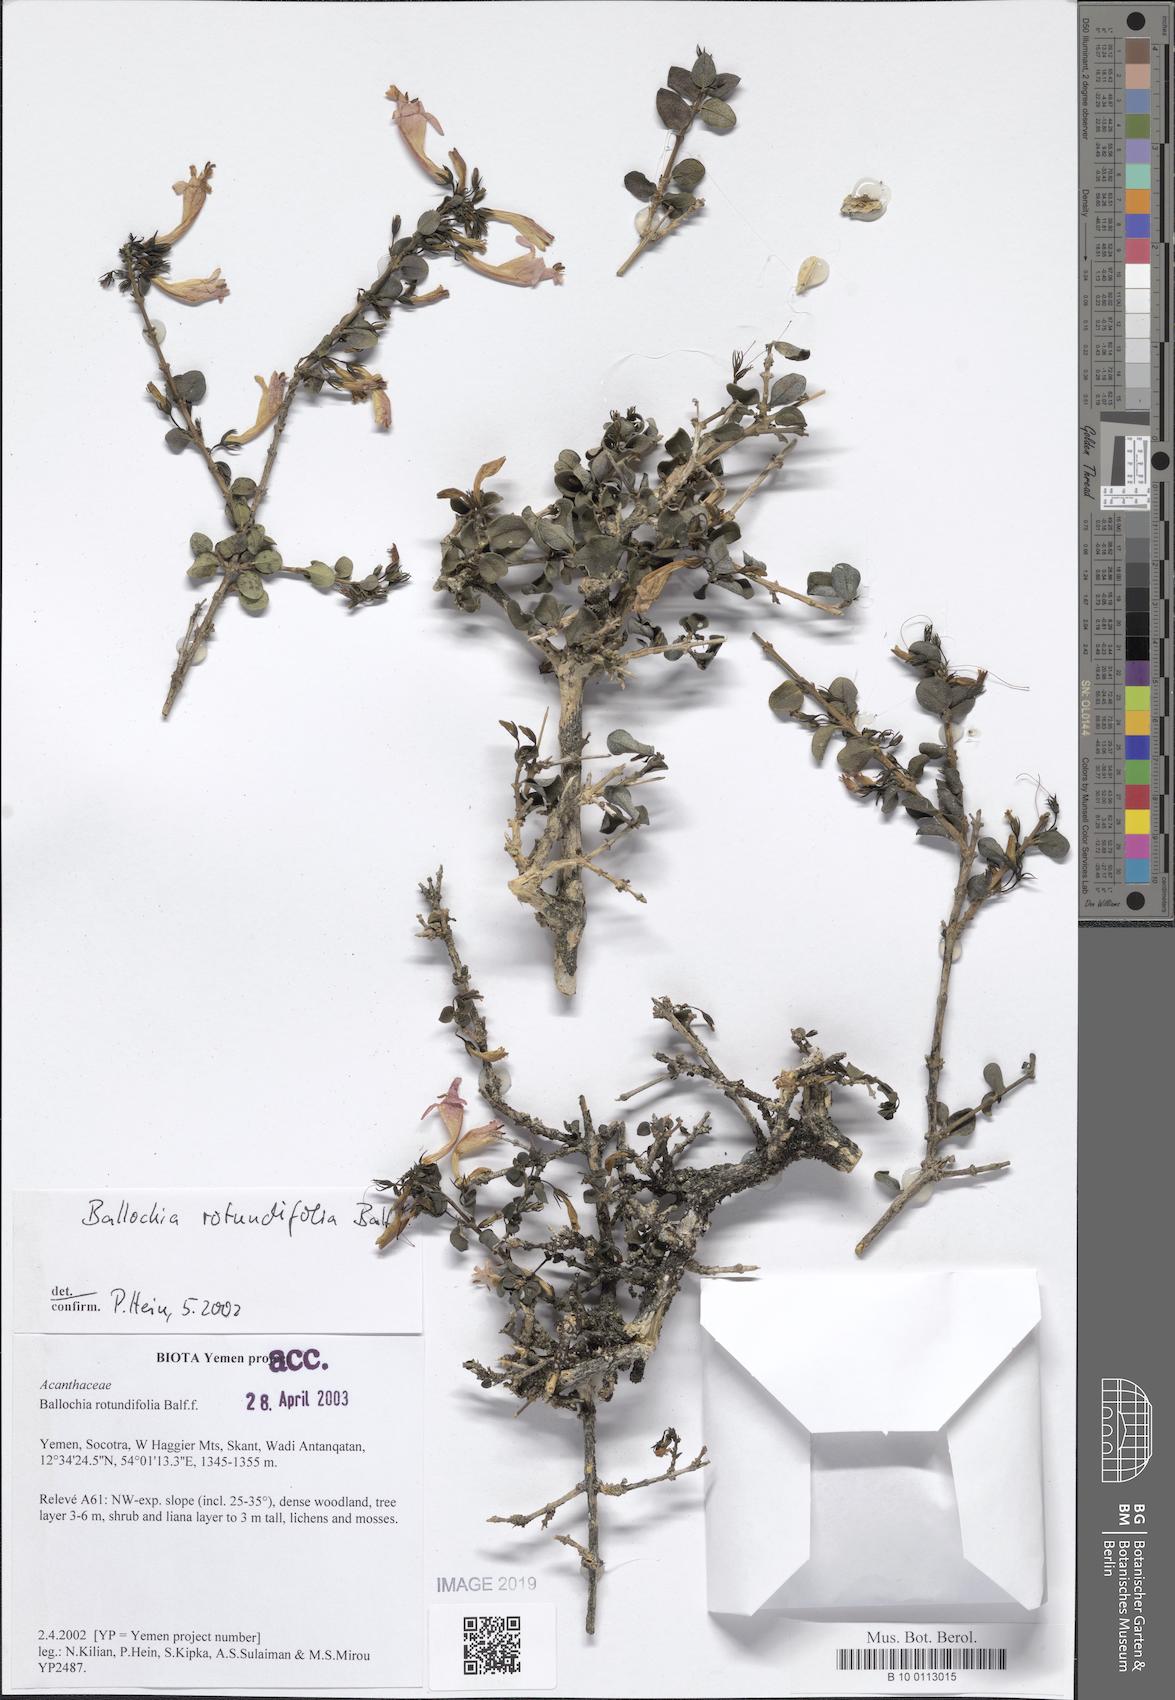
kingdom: Plantae
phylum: Tracheophyta
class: Magnoliopsida
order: Lamiales
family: Acanthaceae
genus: Ballochia
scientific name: Ballochia rotundifolia
